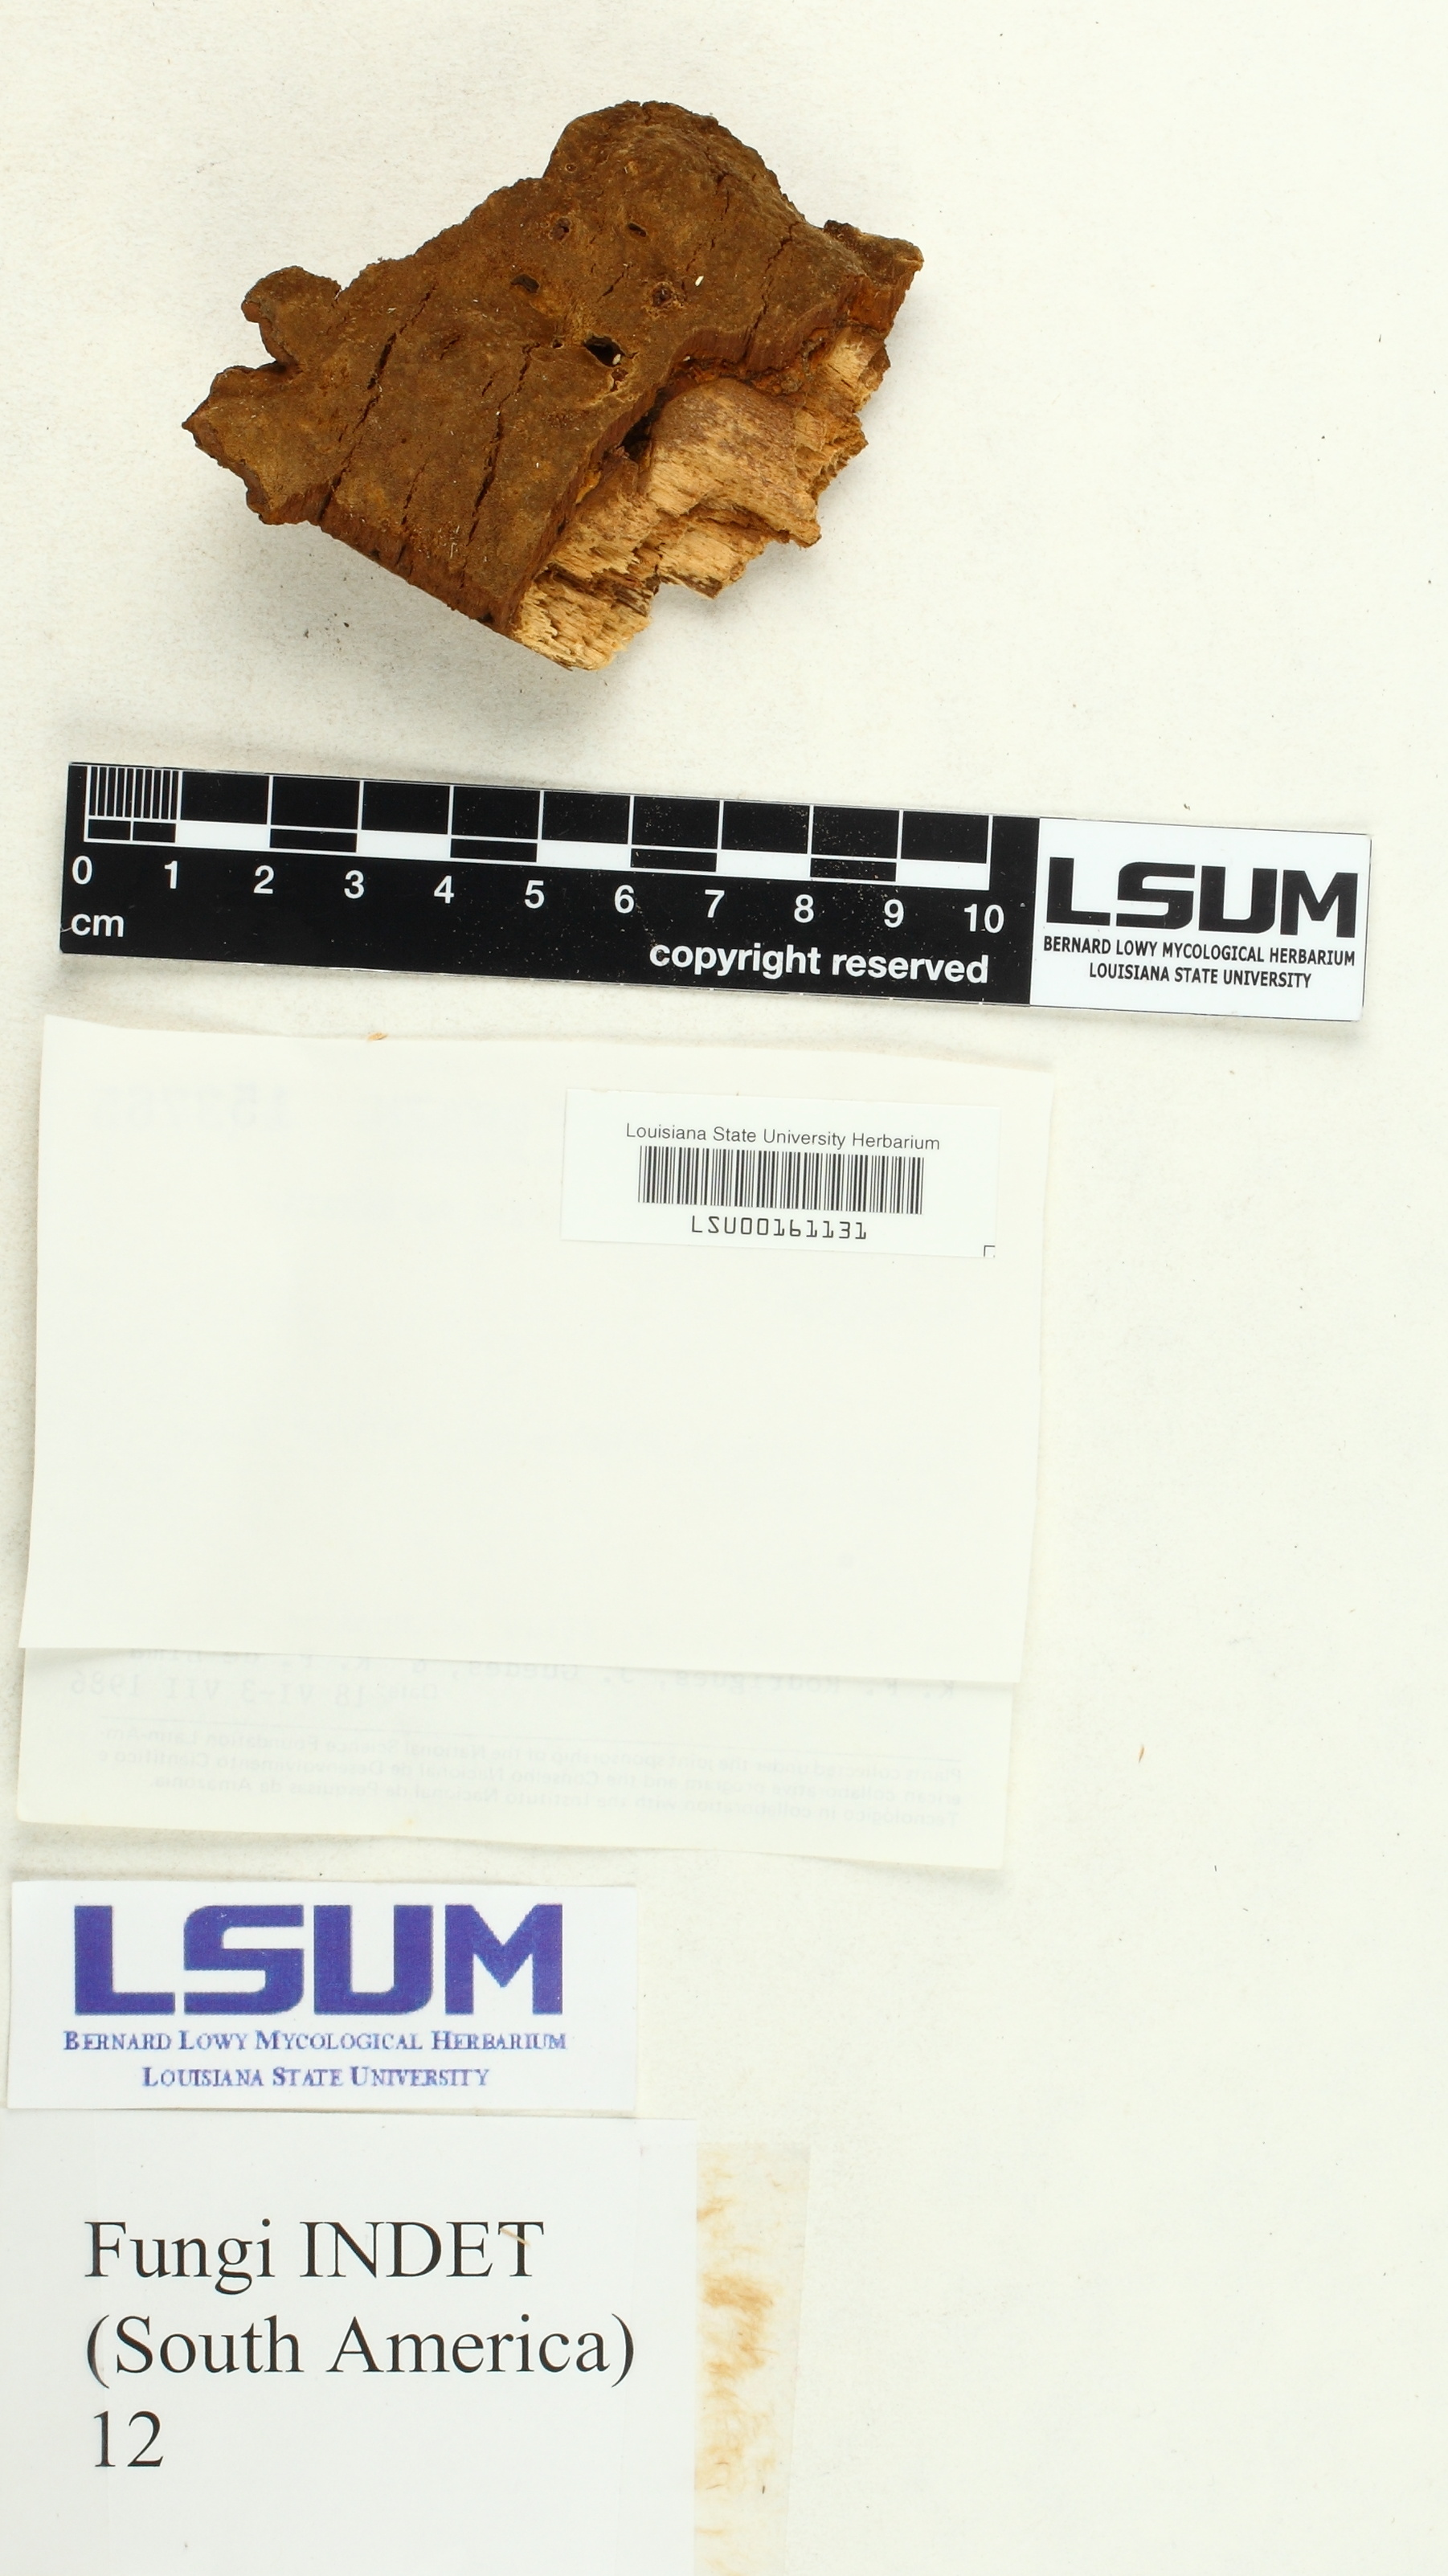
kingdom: Fungi
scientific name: Fungi
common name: Fungi
